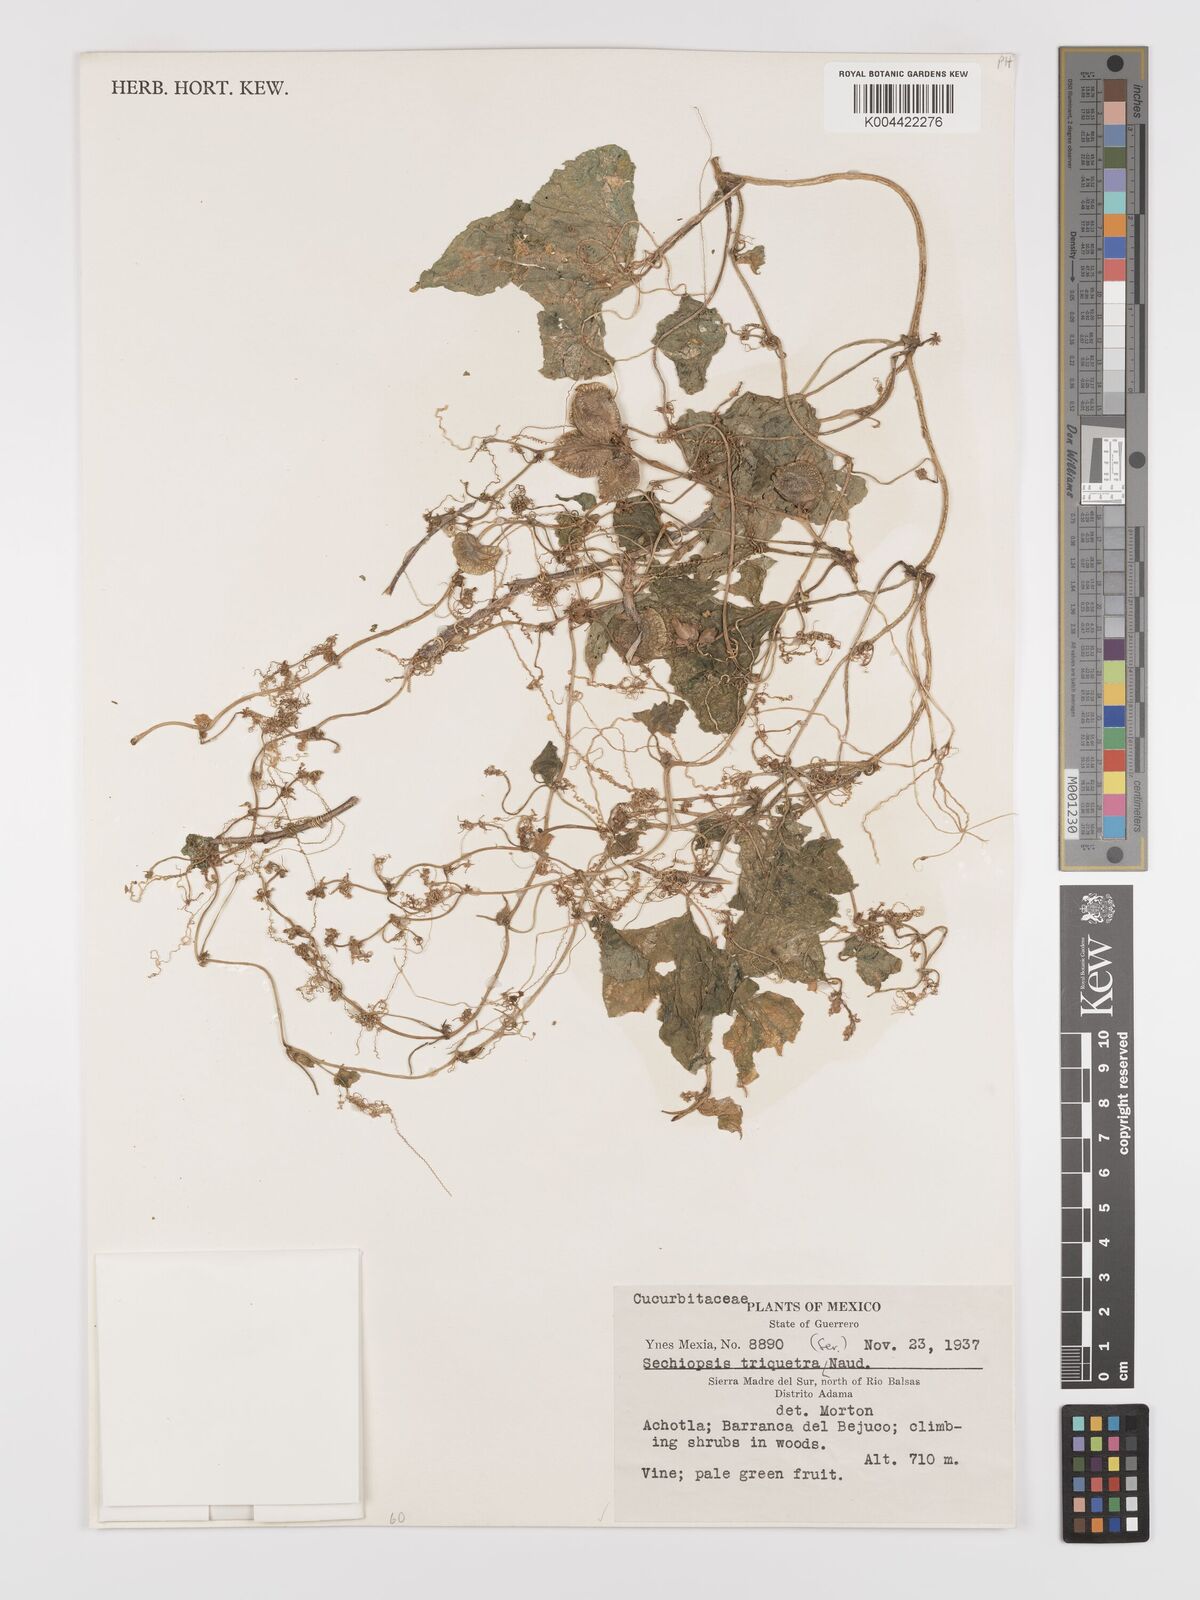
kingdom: Plantae
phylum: Tracheophyta
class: Magnoliopsida
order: Cucurbitales
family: Cucurbitaceae
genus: Sechiopsis
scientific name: Sechiopsis triqueter
